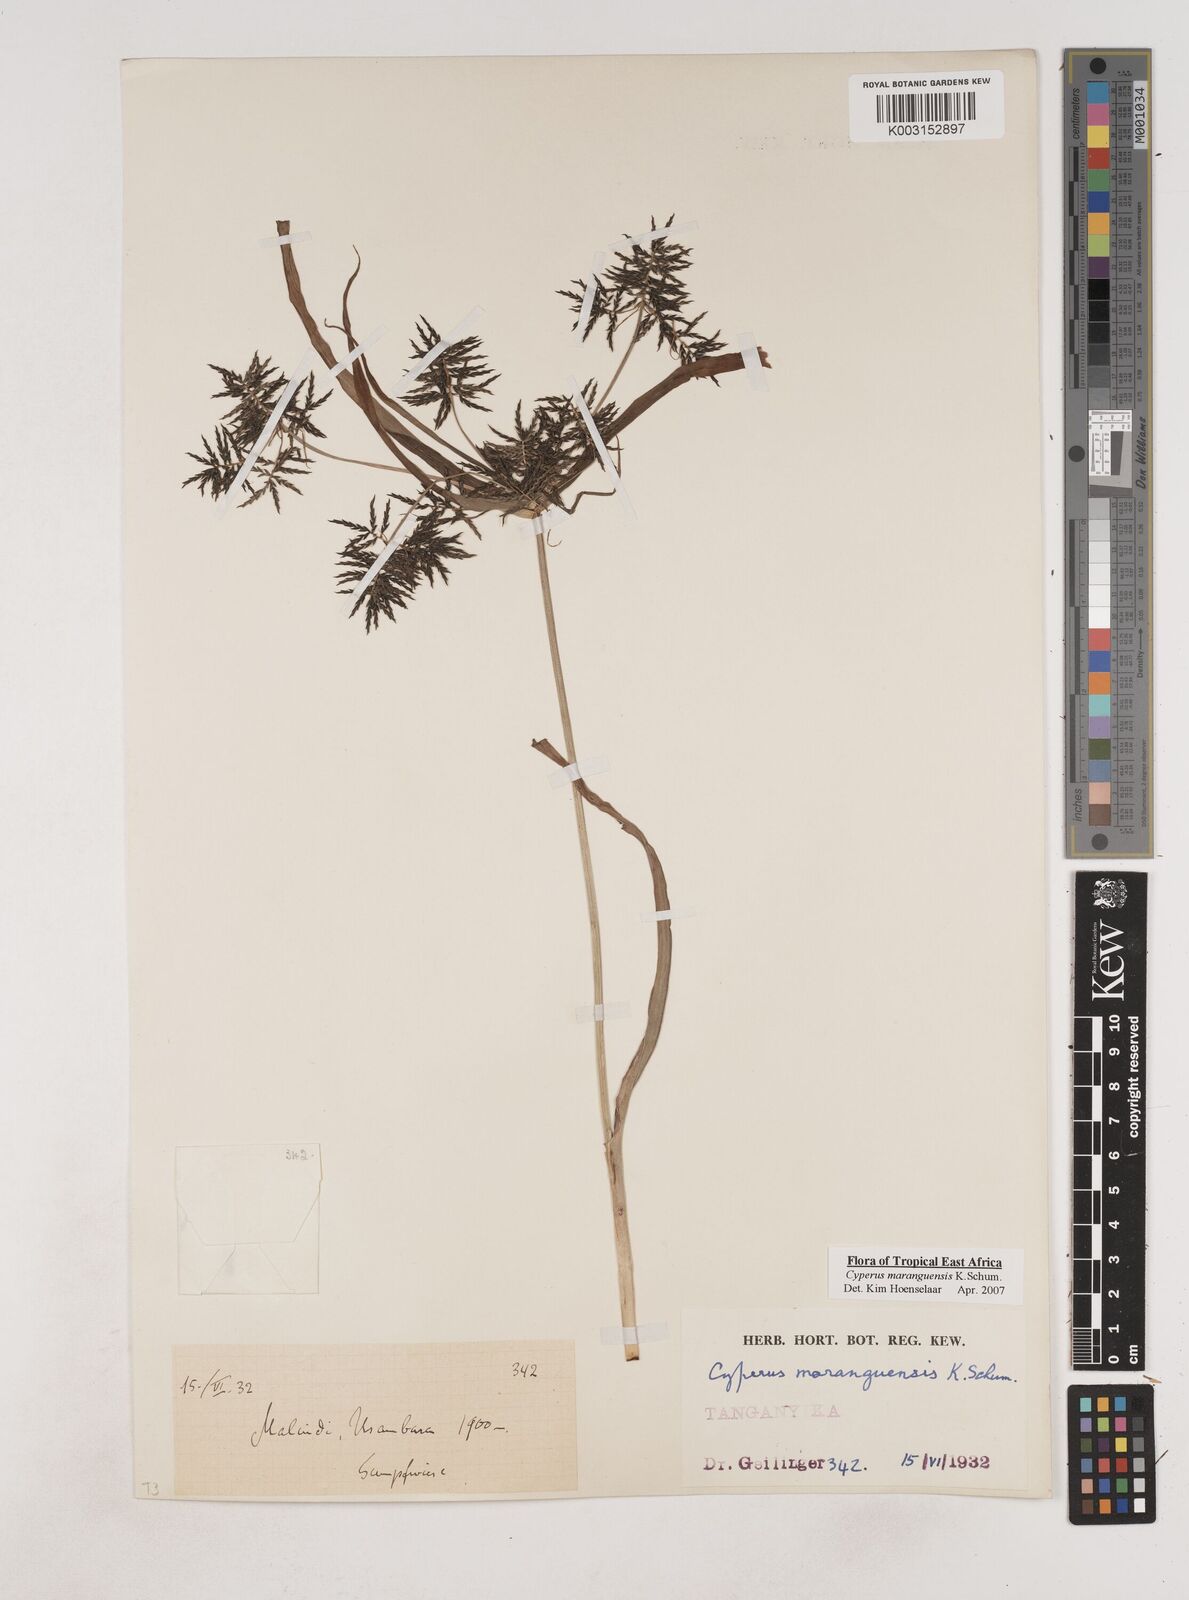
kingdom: Plantae
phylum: Tracheophyta
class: Liliopsida
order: Poales
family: Cyperaceae
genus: Cyperus
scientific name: Cyperus maranguensis
